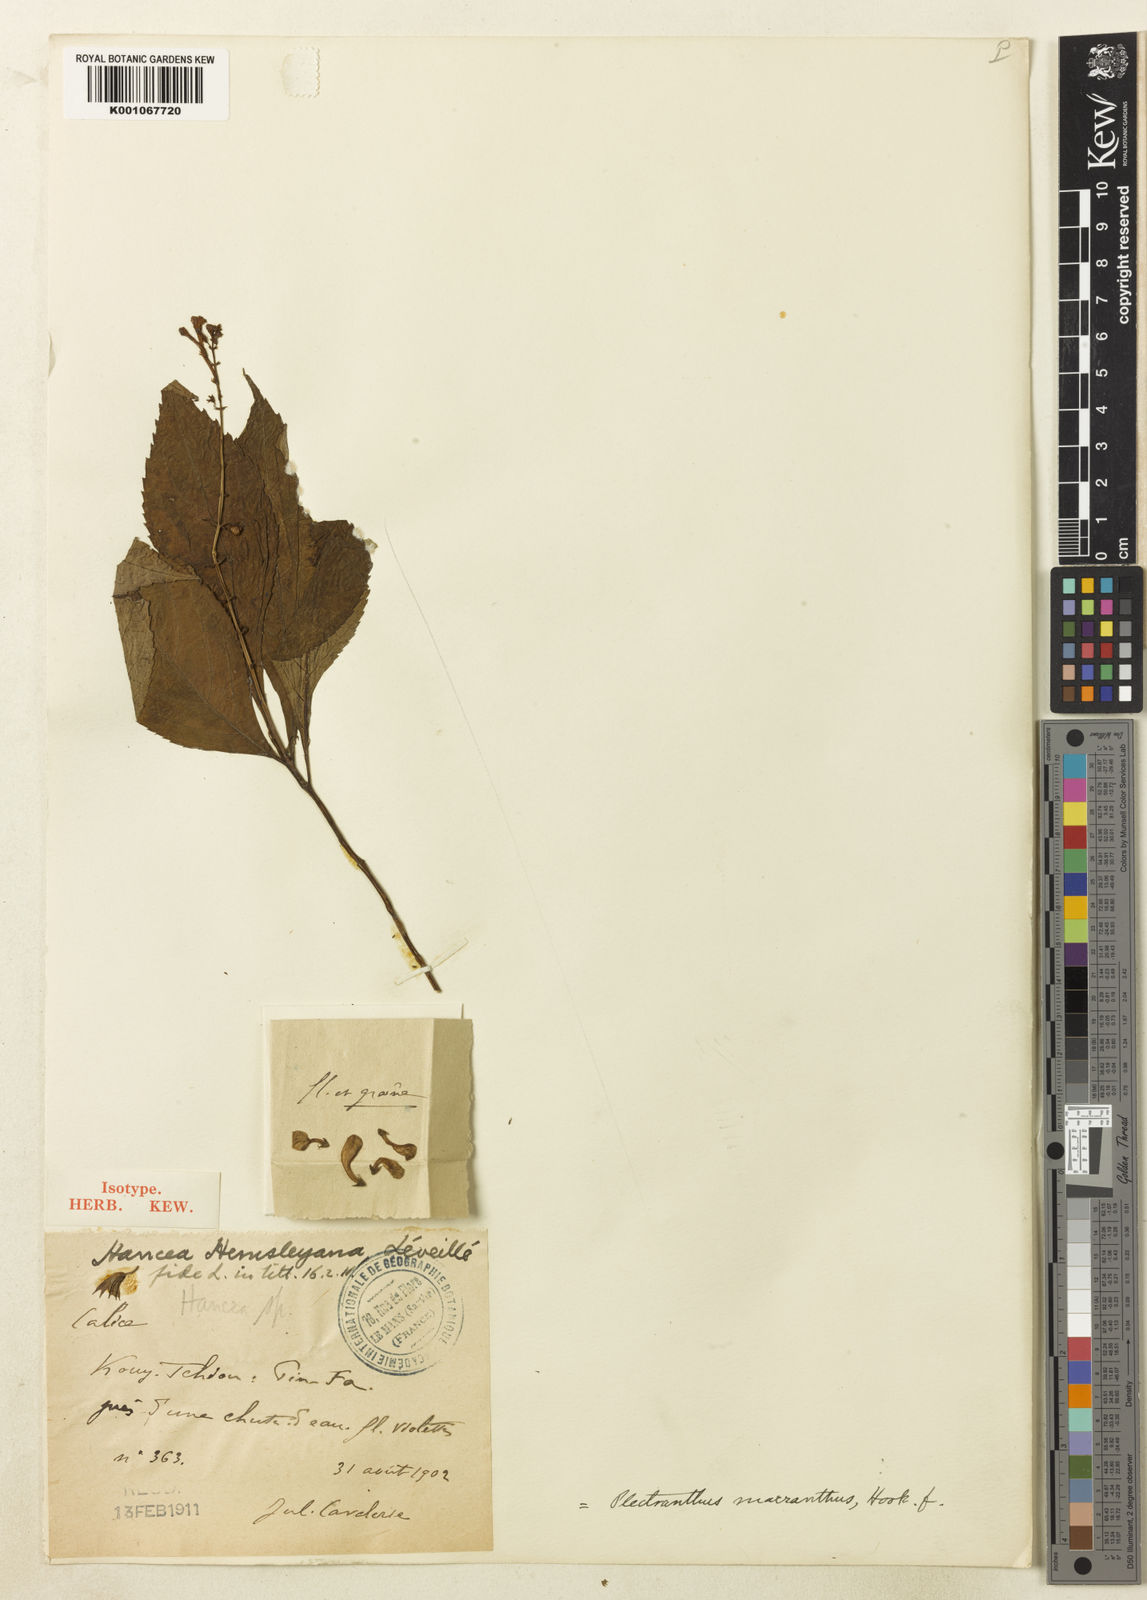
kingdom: Plantae
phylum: Tracheophyta
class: Magnoliopsida
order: Lamiales
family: Lamiaceae
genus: Siphocranion
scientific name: Siphocranion macranthum
